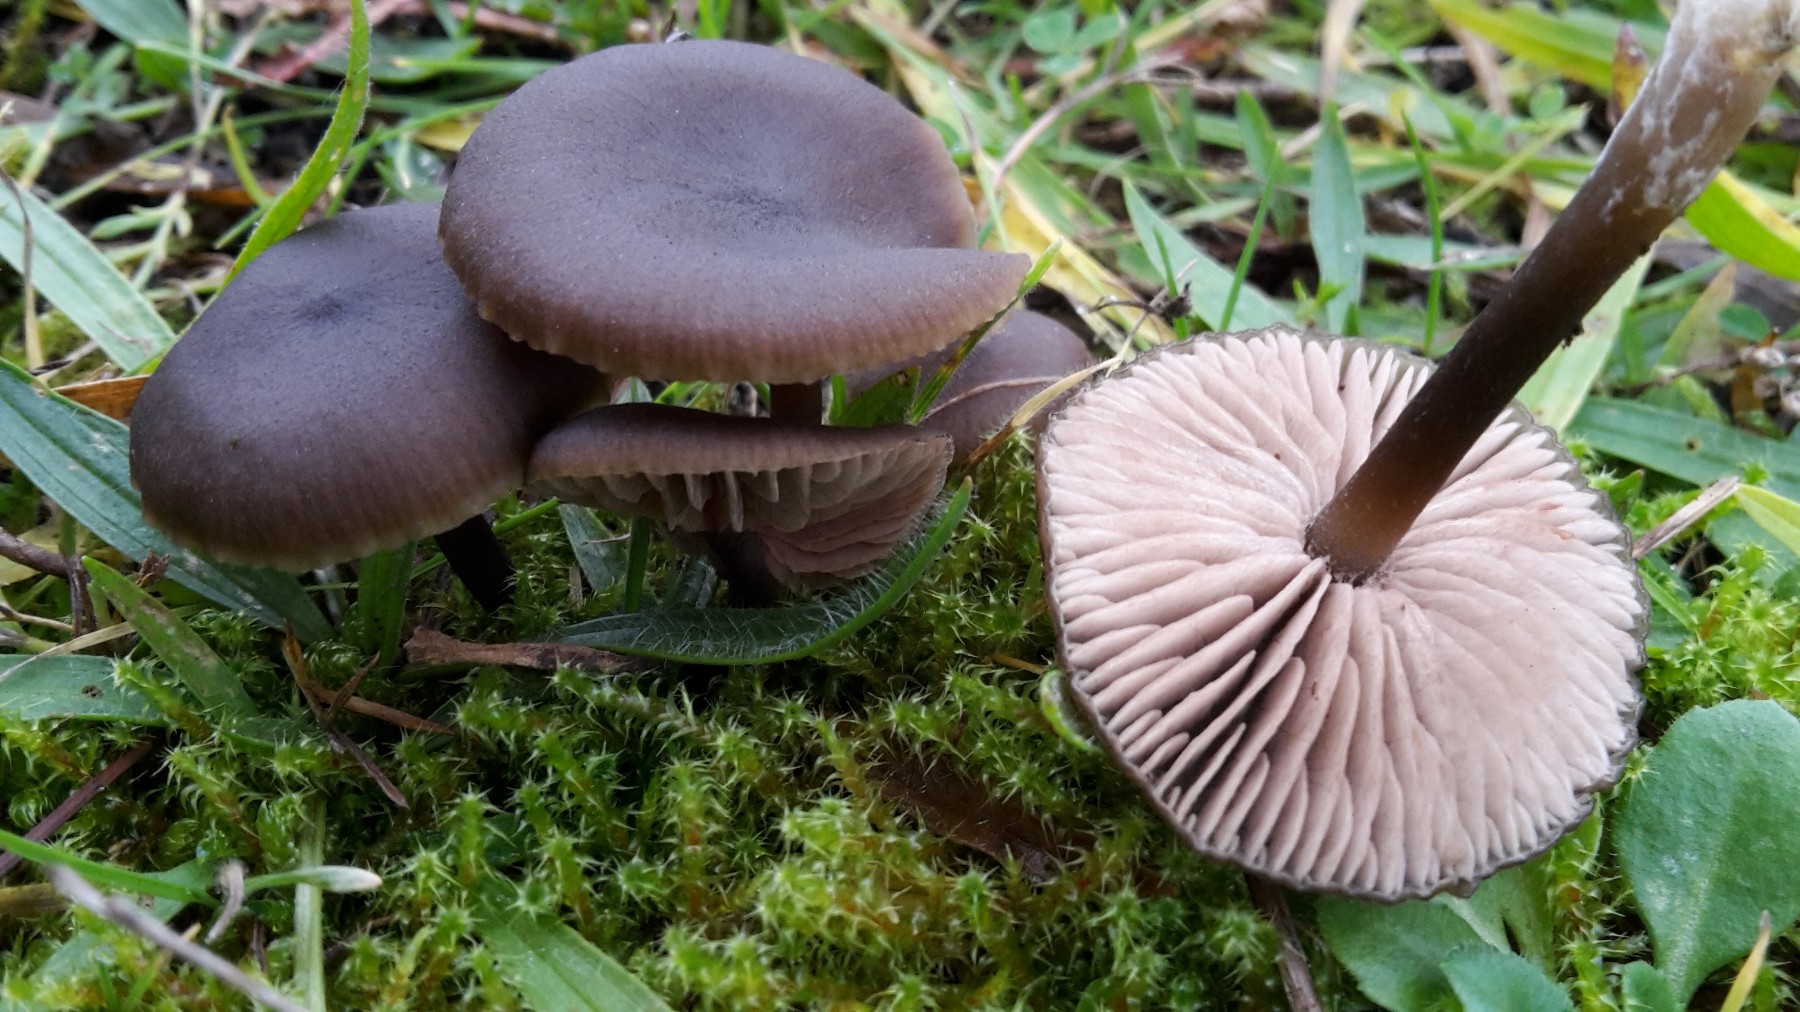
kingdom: Fungi
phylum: Basidiomycota
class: Agaricomycetes
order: Agaricales
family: Entolomataceae
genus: Entoloma
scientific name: Entoloma vindobonense
